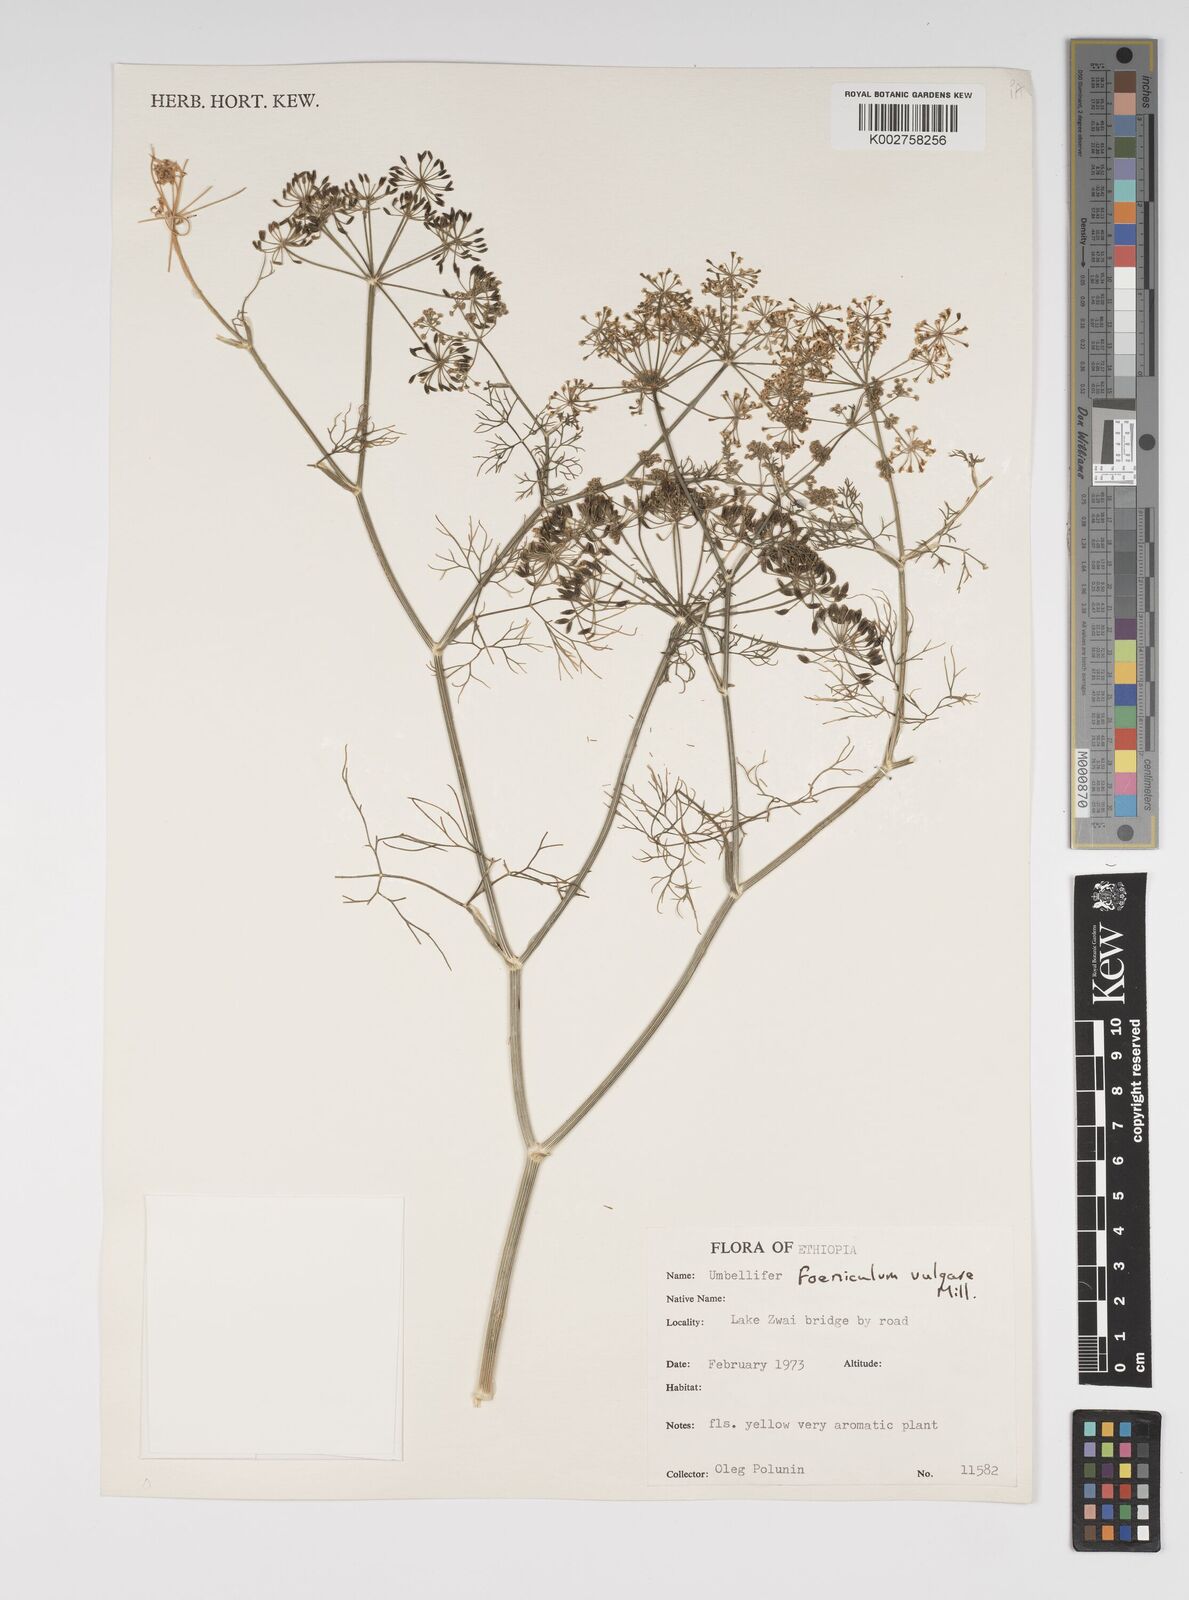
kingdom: Plantae
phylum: Tracheophyta
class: Magnoliopsida
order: Apiales
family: Apiaceae
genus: Foeniculum
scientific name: Foeniculum vulgare
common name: Fennel
